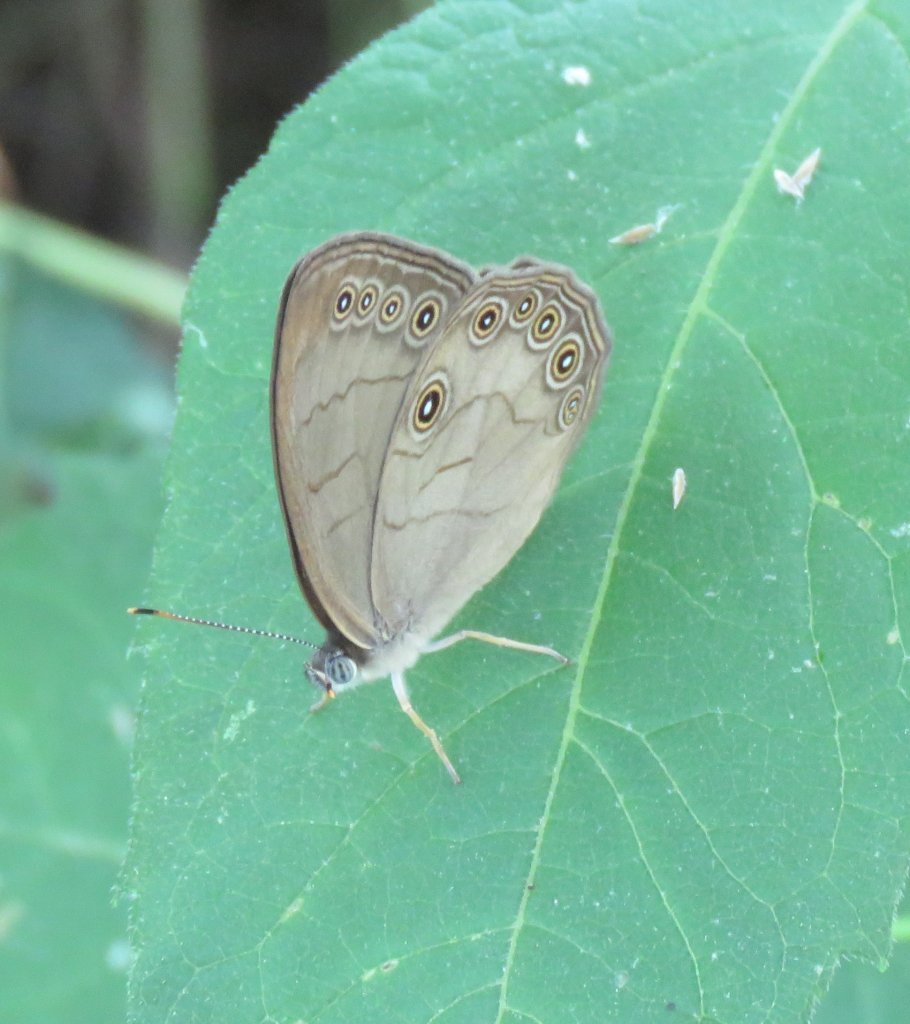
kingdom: Animalia
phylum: Arthropoda
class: Insecta
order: Lepidoptera
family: Nymphalidae
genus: Lethe
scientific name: Lethe eurydice
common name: Appalachian Eyed Brown
